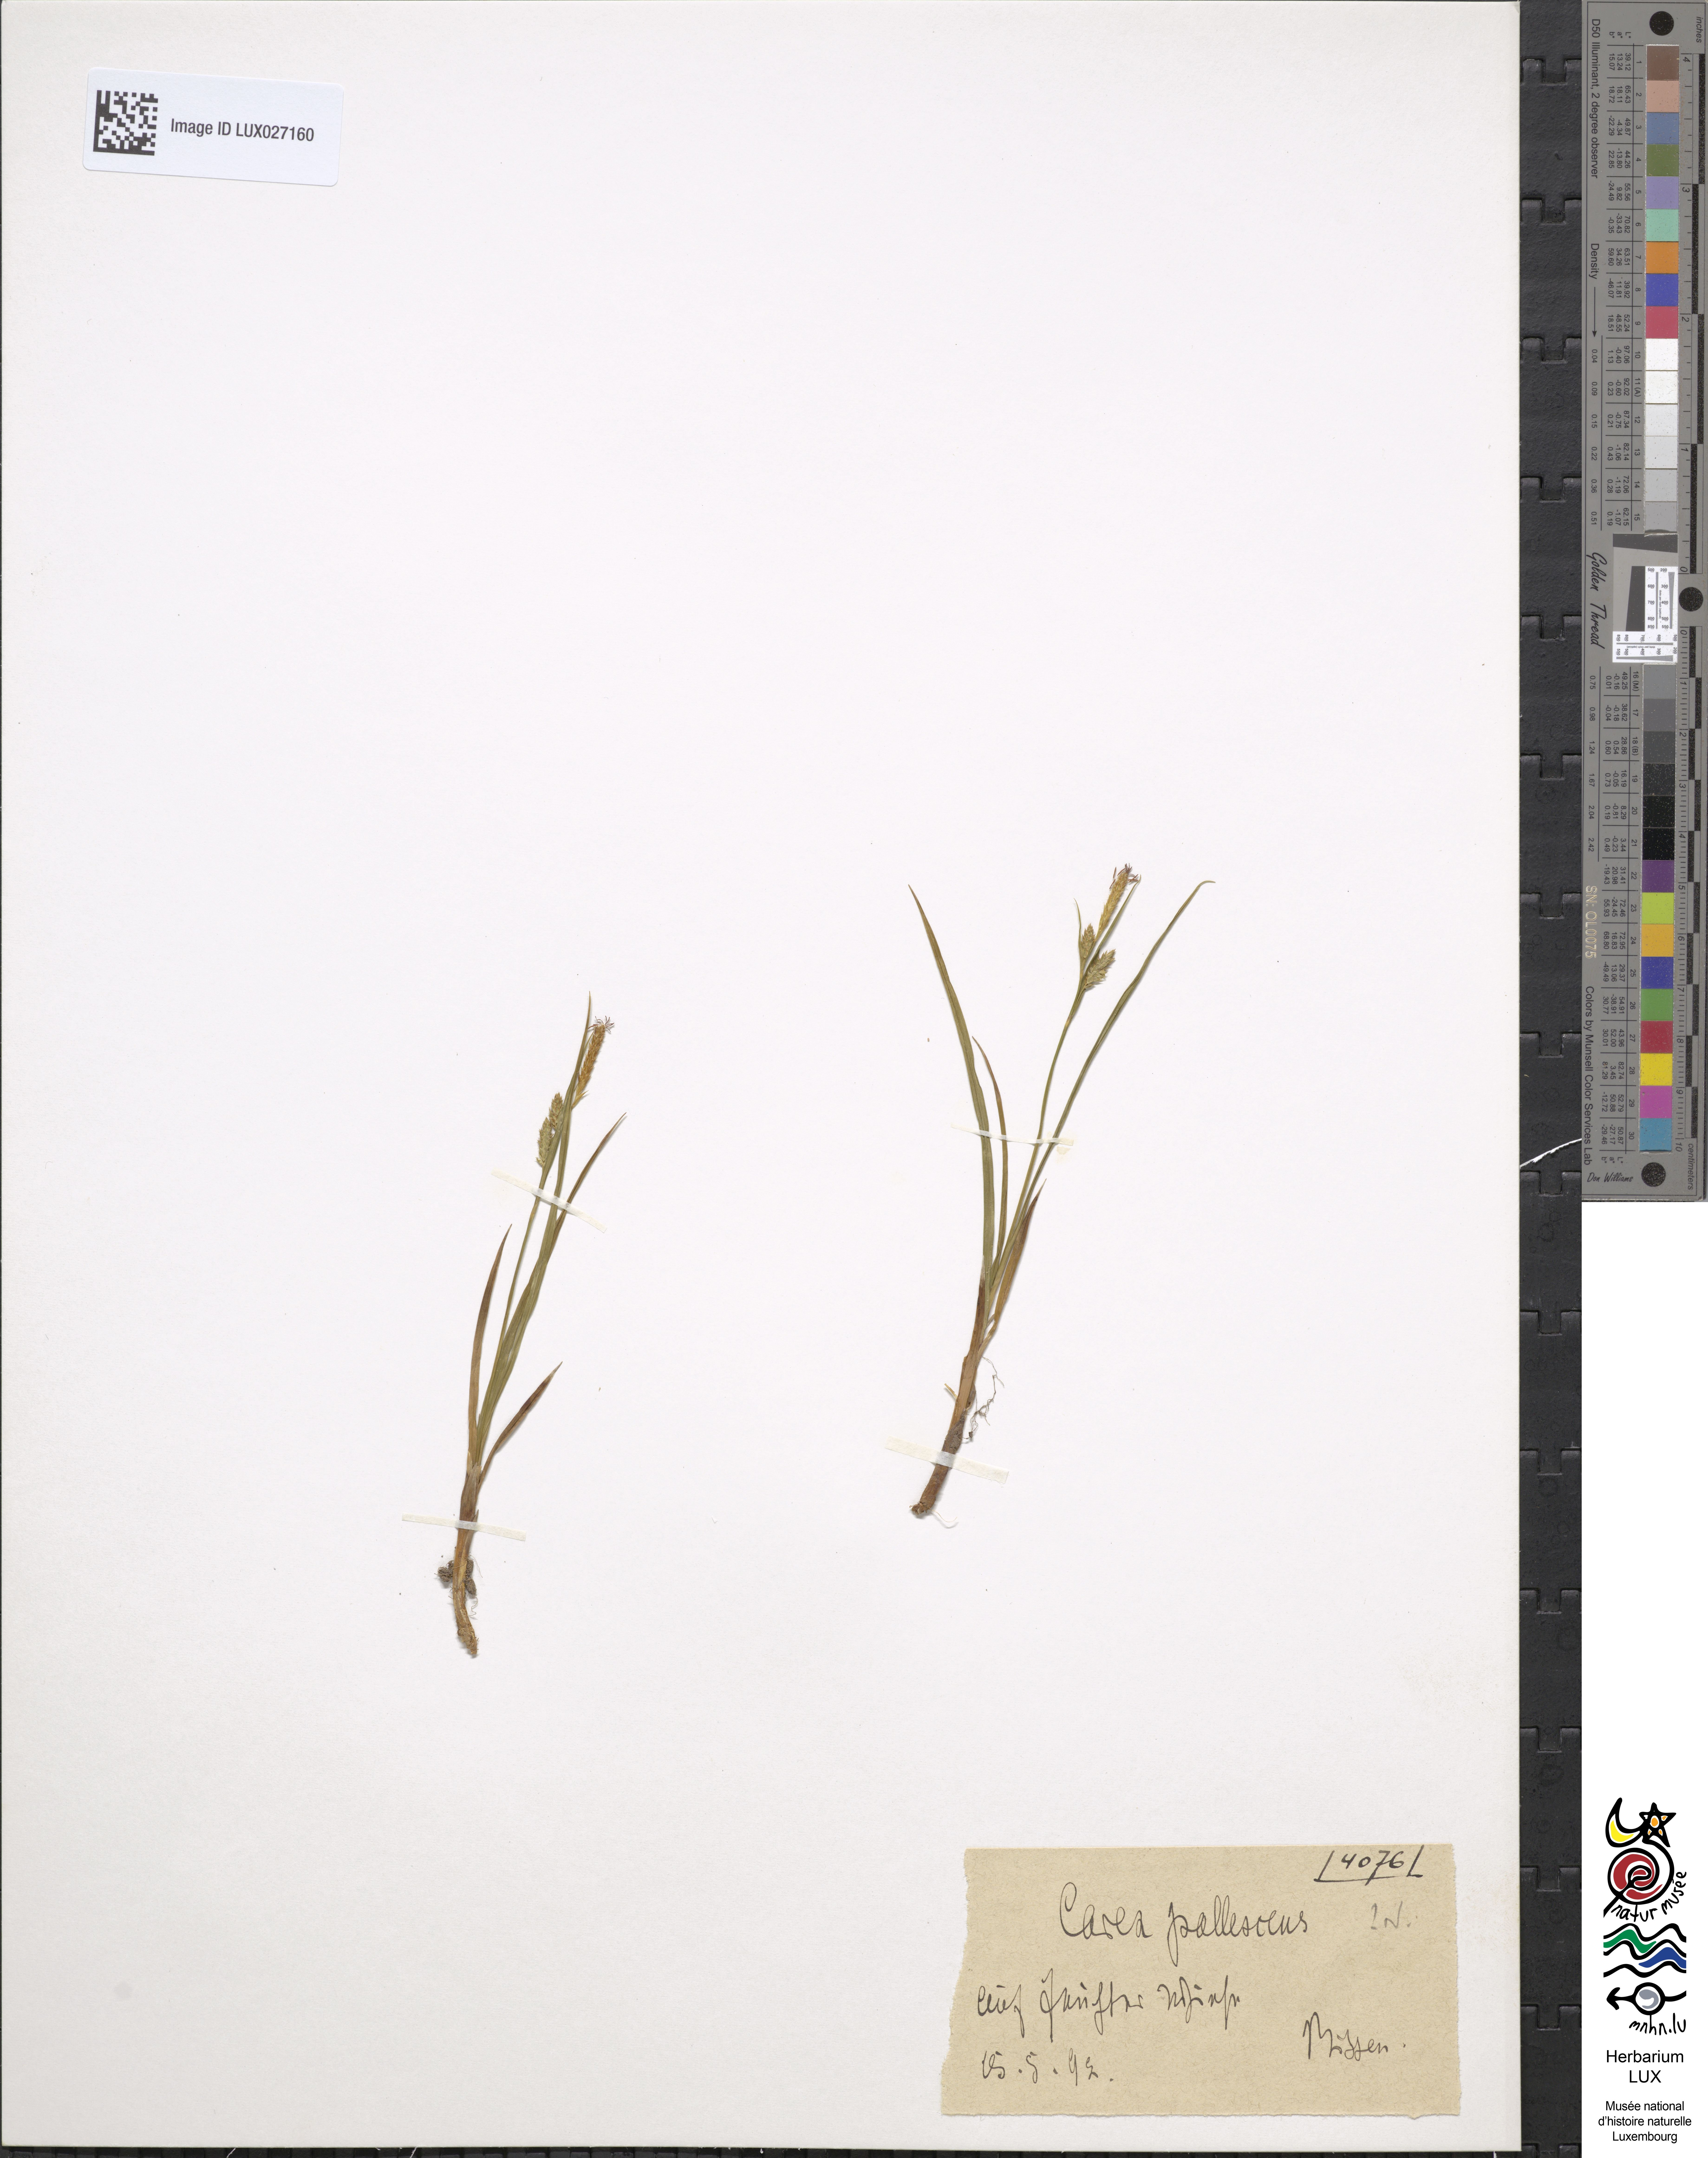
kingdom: Plantae
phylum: Tracheophyta
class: Liliopsida
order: Poales
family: Cyperaceae
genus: Carex
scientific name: Carex pallescens
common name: Pale sedge
